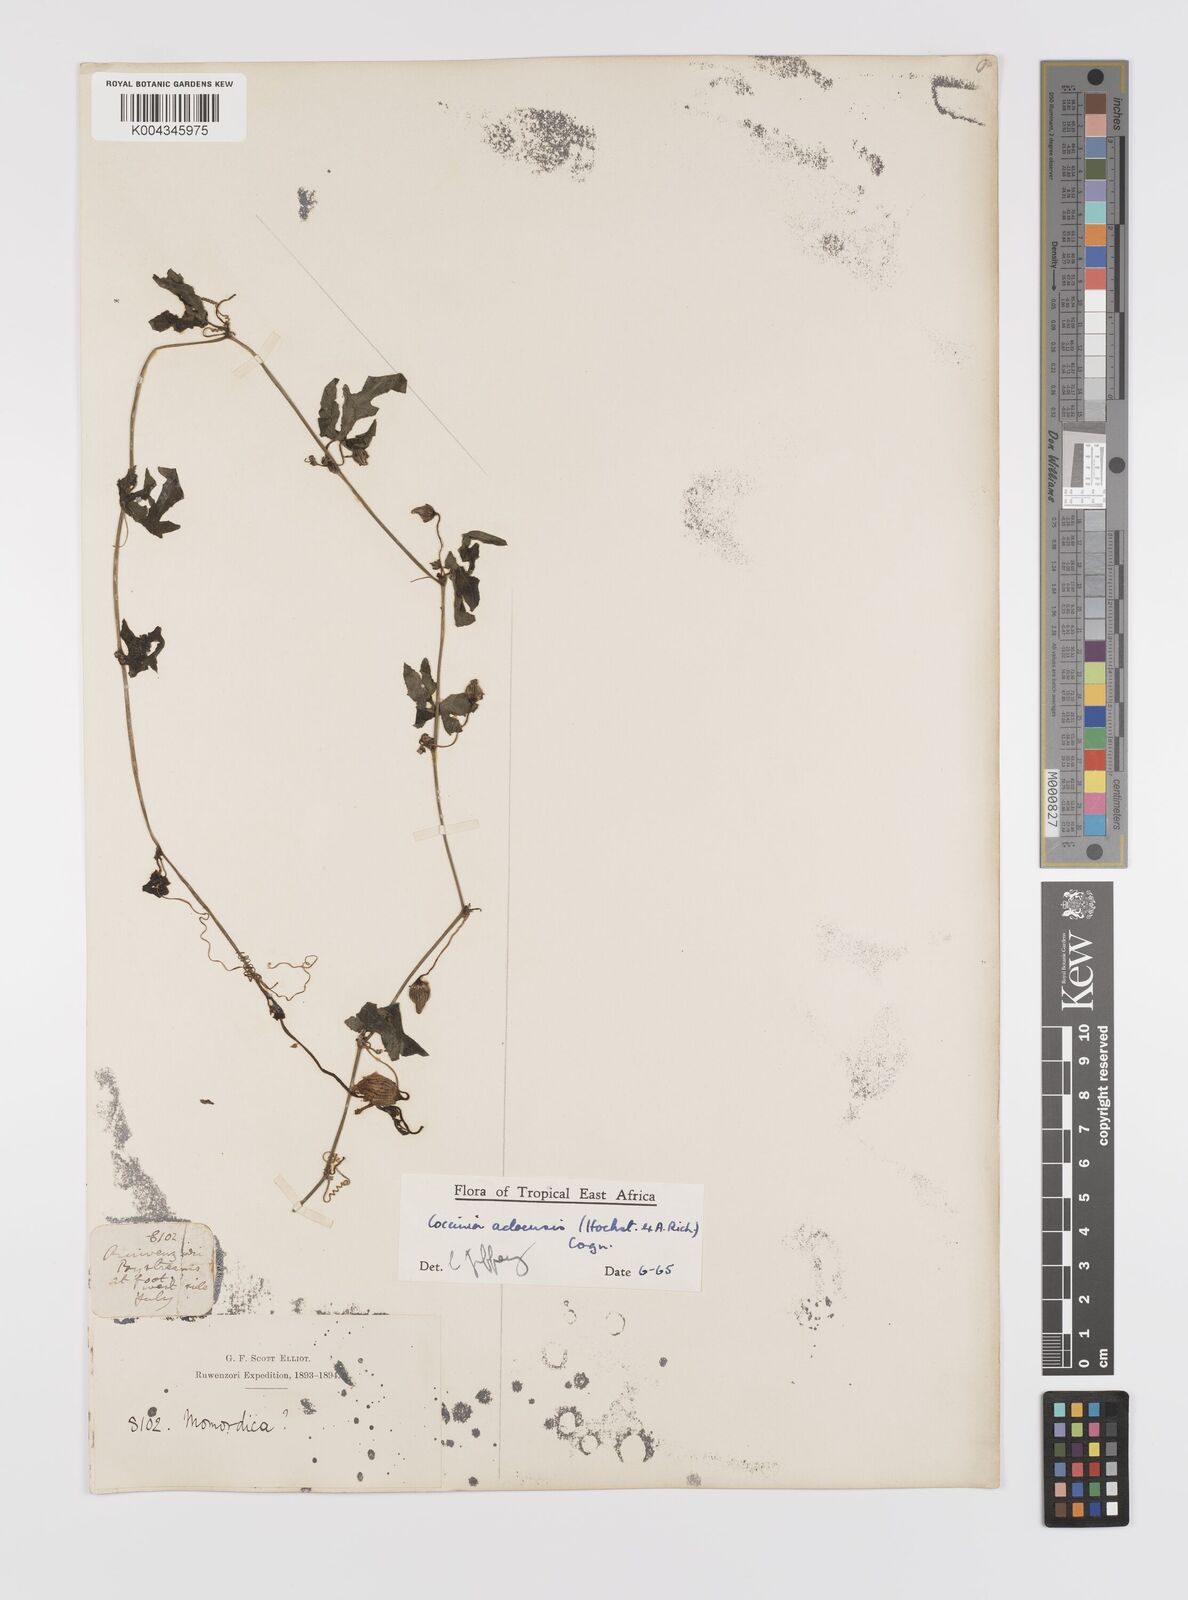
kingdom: Plantae
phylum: Tracheophyta
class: Magnoliopsida
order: Cucurbitales
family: Cucurbitaceae
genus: Coccinia
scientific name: Coccinia adoensis
